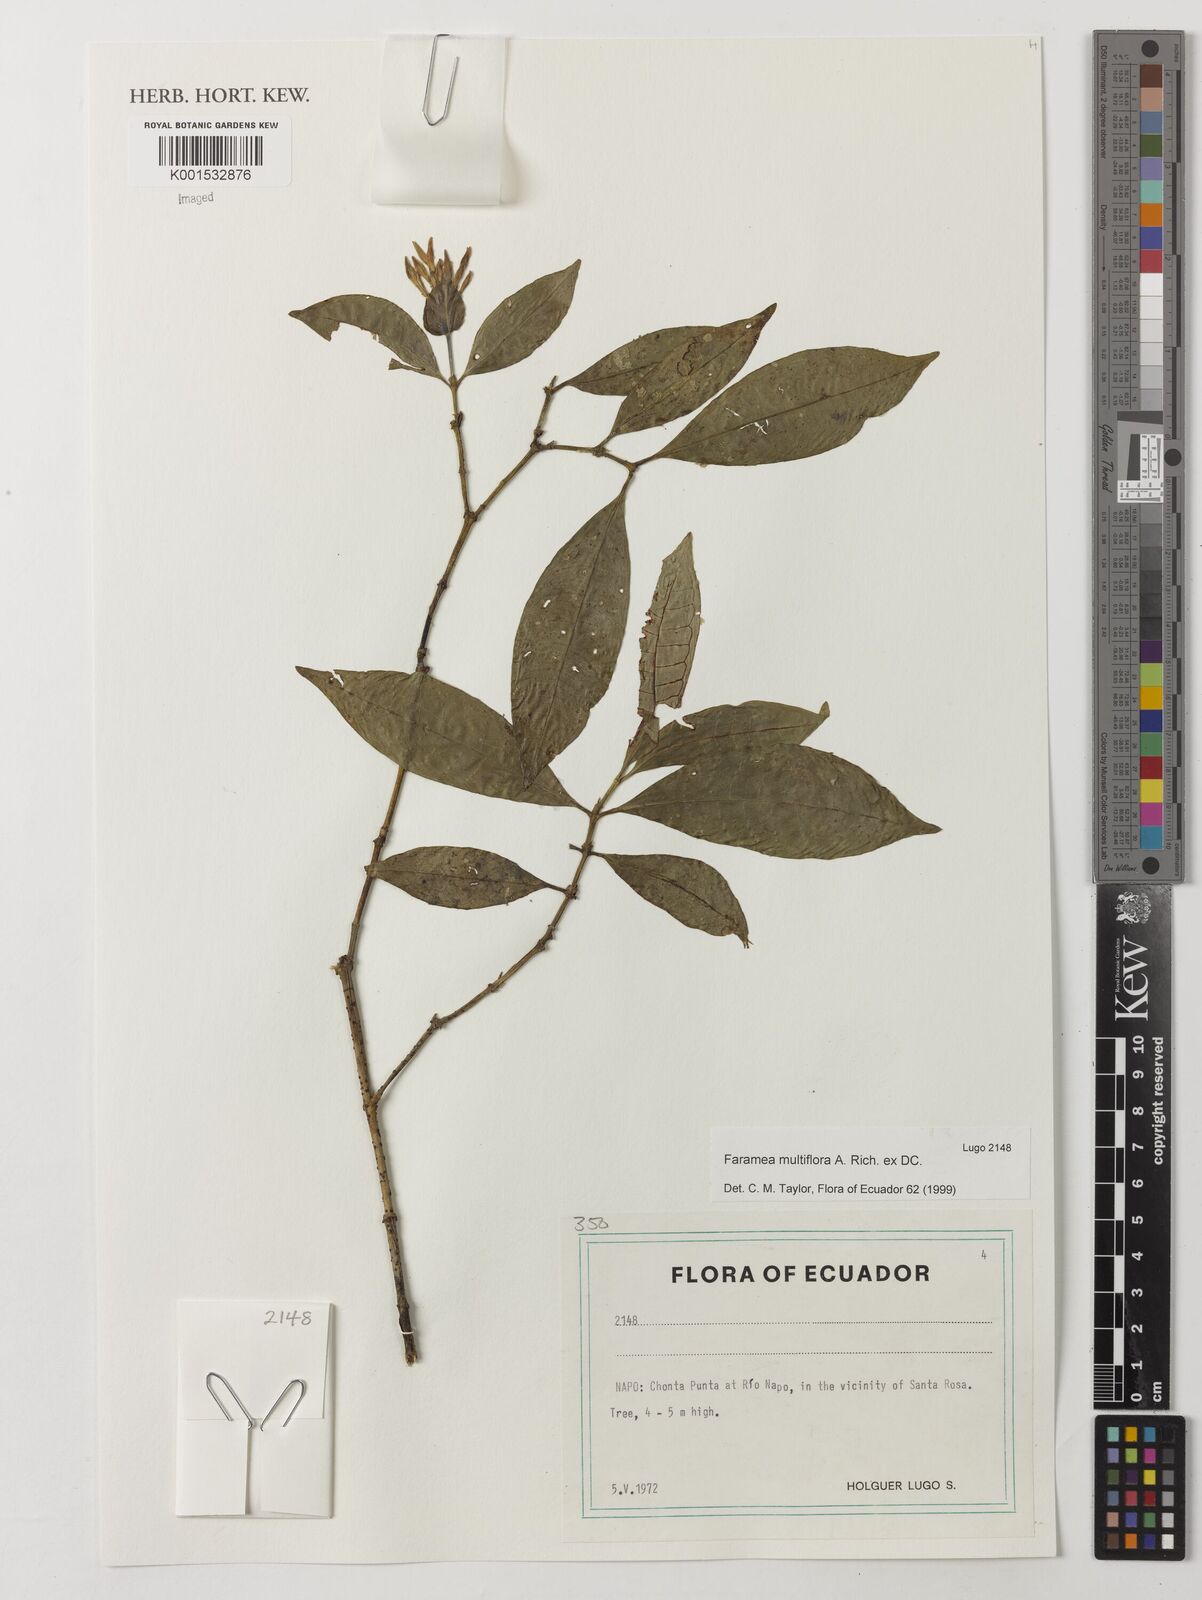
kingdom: Plantae
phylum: Tracheophyta
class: Magnoliopsida
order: Gentianales
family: Rubiaceae
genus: Faramea
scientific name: Faramea multiflora
